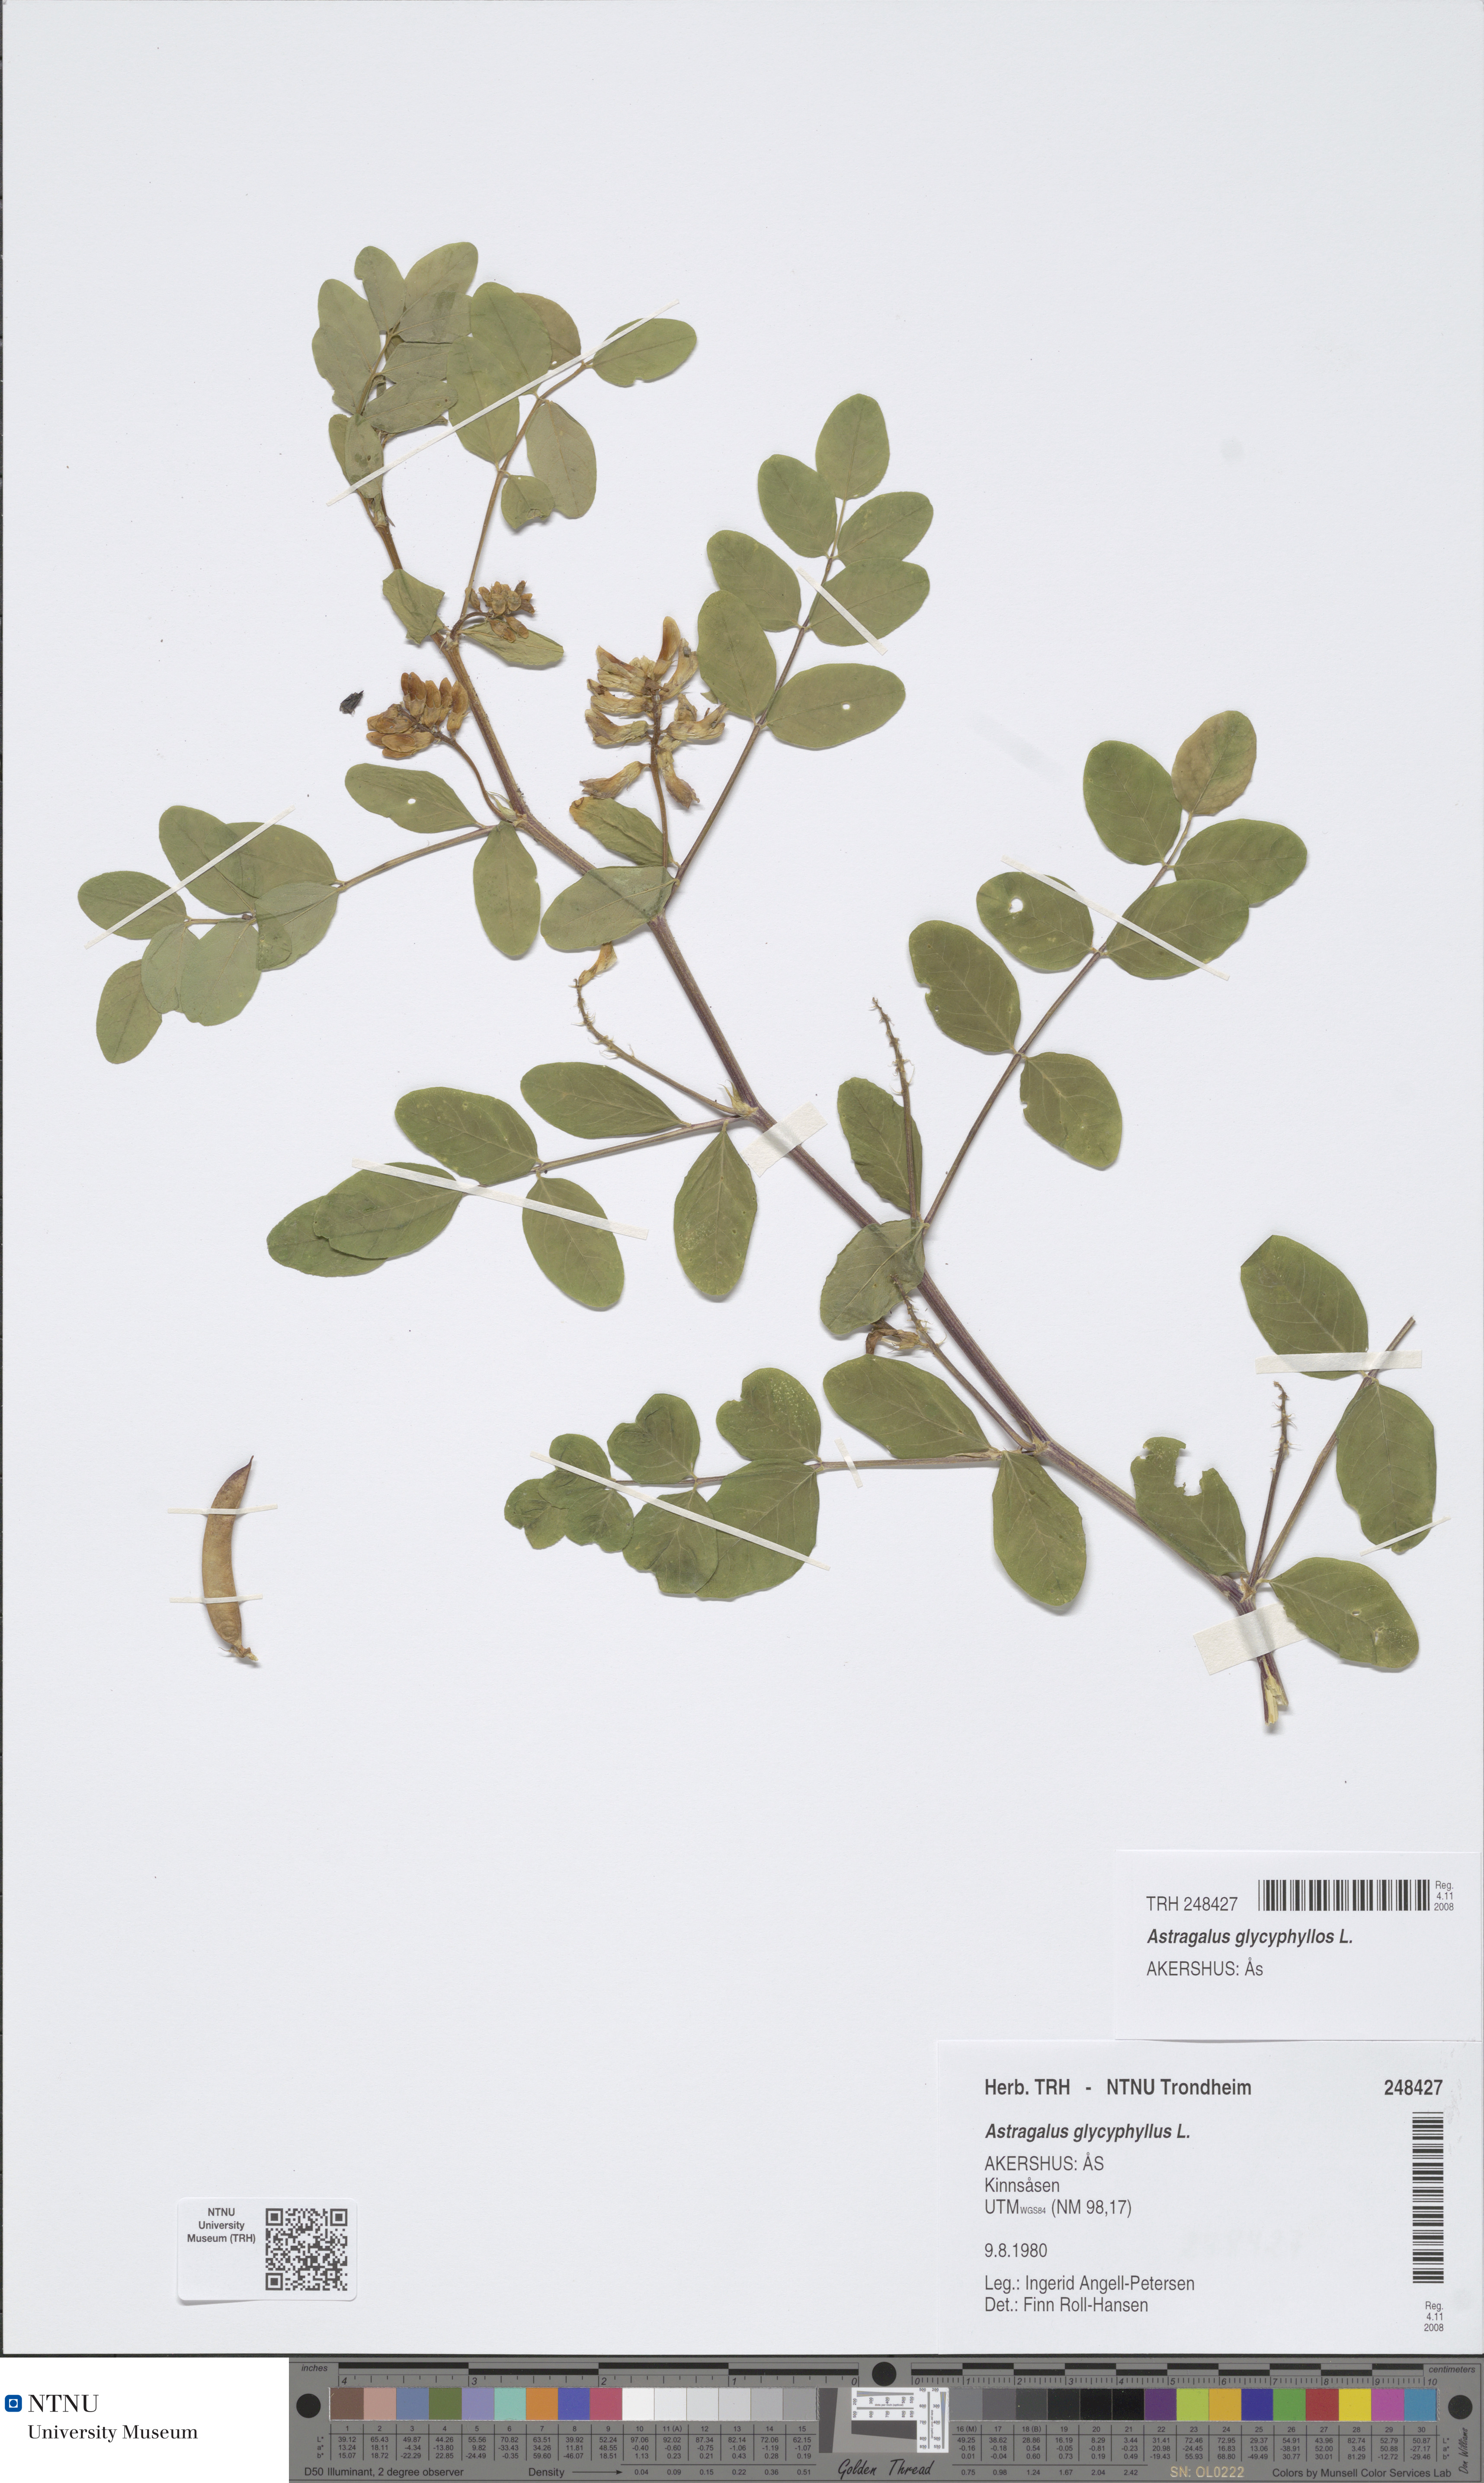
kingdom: Plantae
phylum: Tracheophyta
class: Magnoliopsida
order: Fabales
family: Fabaceae
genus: Astragalus
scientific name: Astragalus glycyphyllos
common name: Wild liquorice
